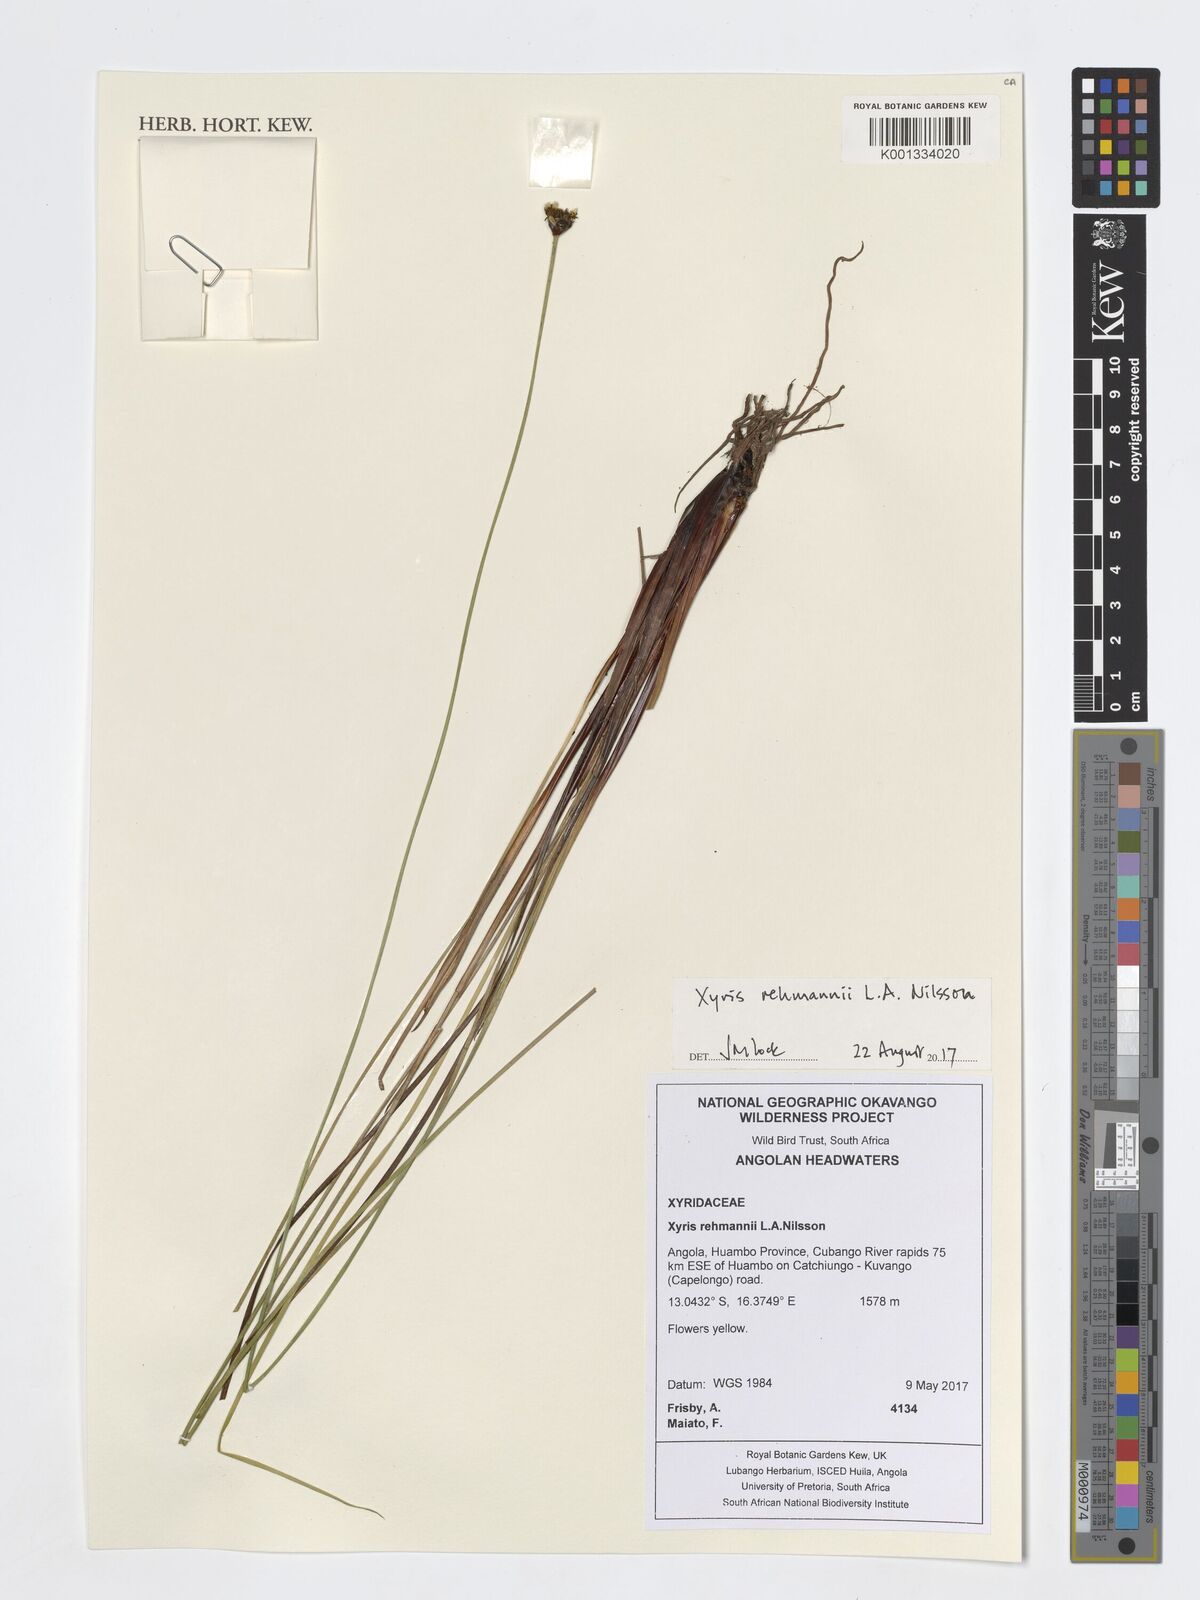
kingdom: Plantae
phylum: Tracheophyta
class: Liliopsida
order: Poales
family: Xyridaceae
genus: Xyris
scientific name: Xyris rehmannii
